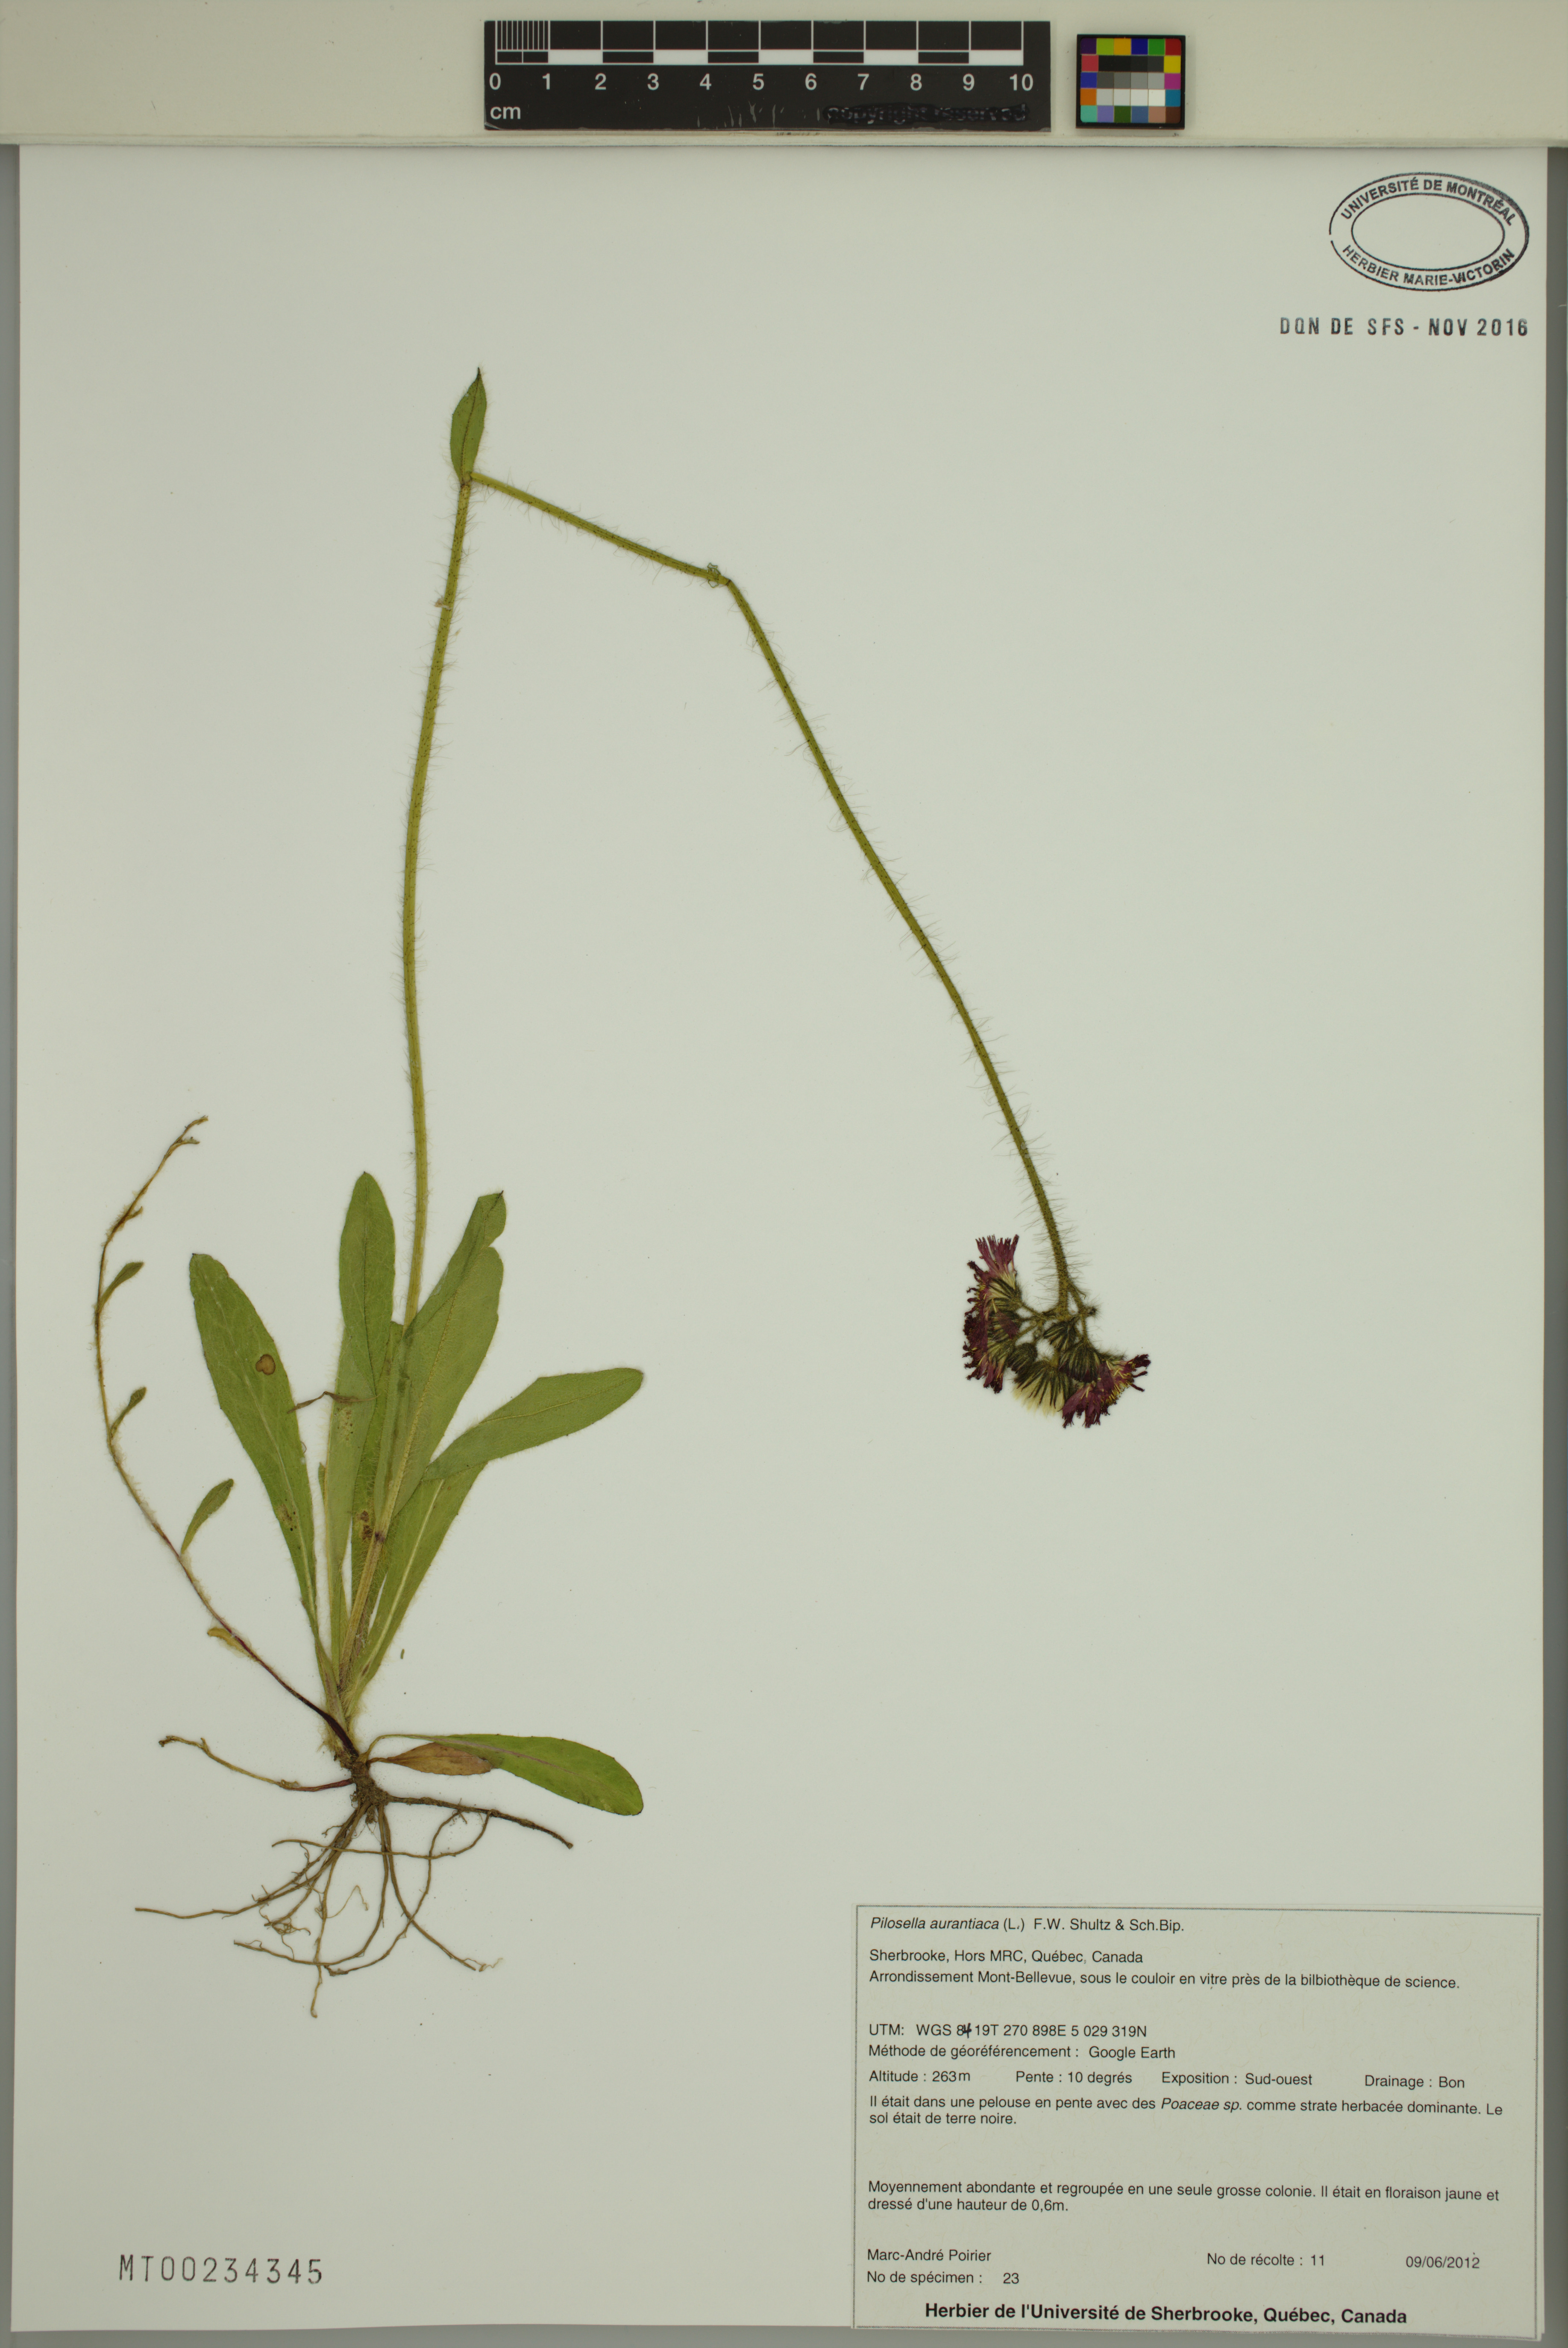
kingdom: Plantae
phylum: Tracheophyta
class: Magnoliopsida
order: Asterales
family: Asteraceae
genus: Pilosella
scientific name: Pilosella aurantiaca
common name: Fox-and-cubs
